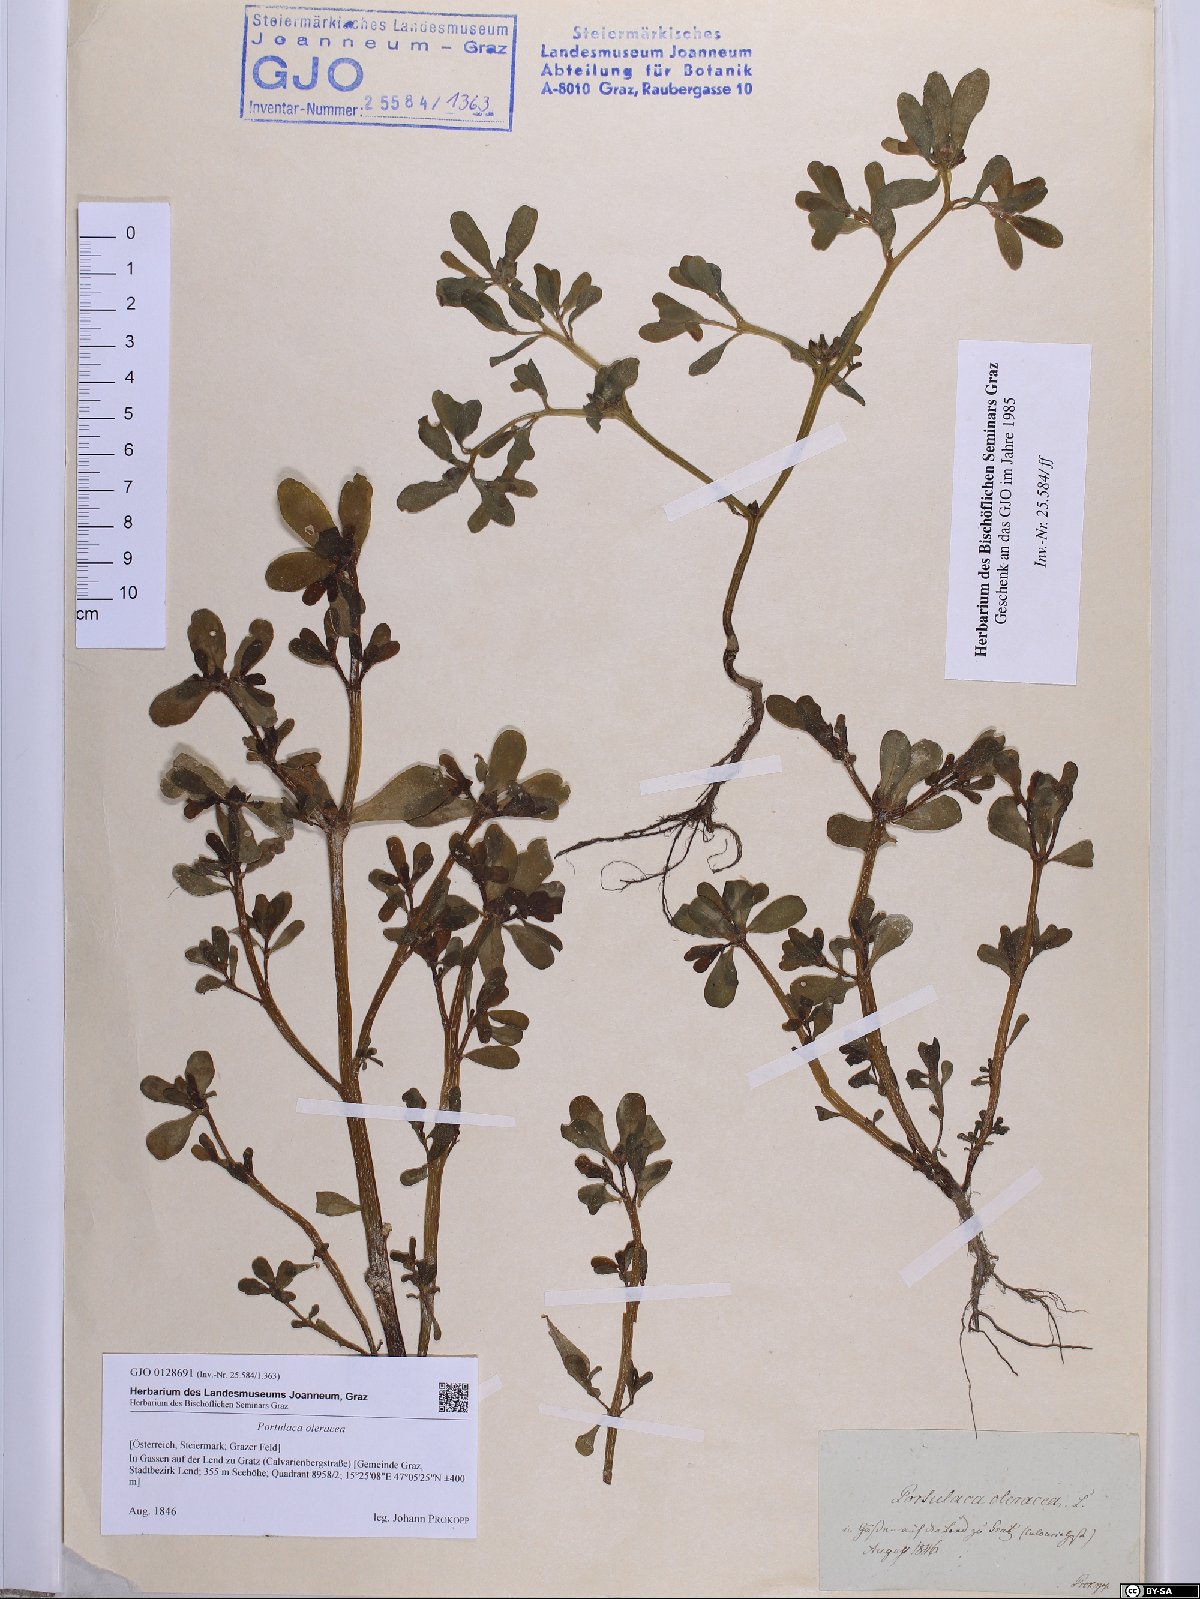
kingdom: Plantae
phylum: Tracheophyta
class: Magnoliopsida
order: Caryophyllales
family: Portulacaceae
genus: Portulaca
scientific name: Portulaca oleracea
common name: Common purslane
